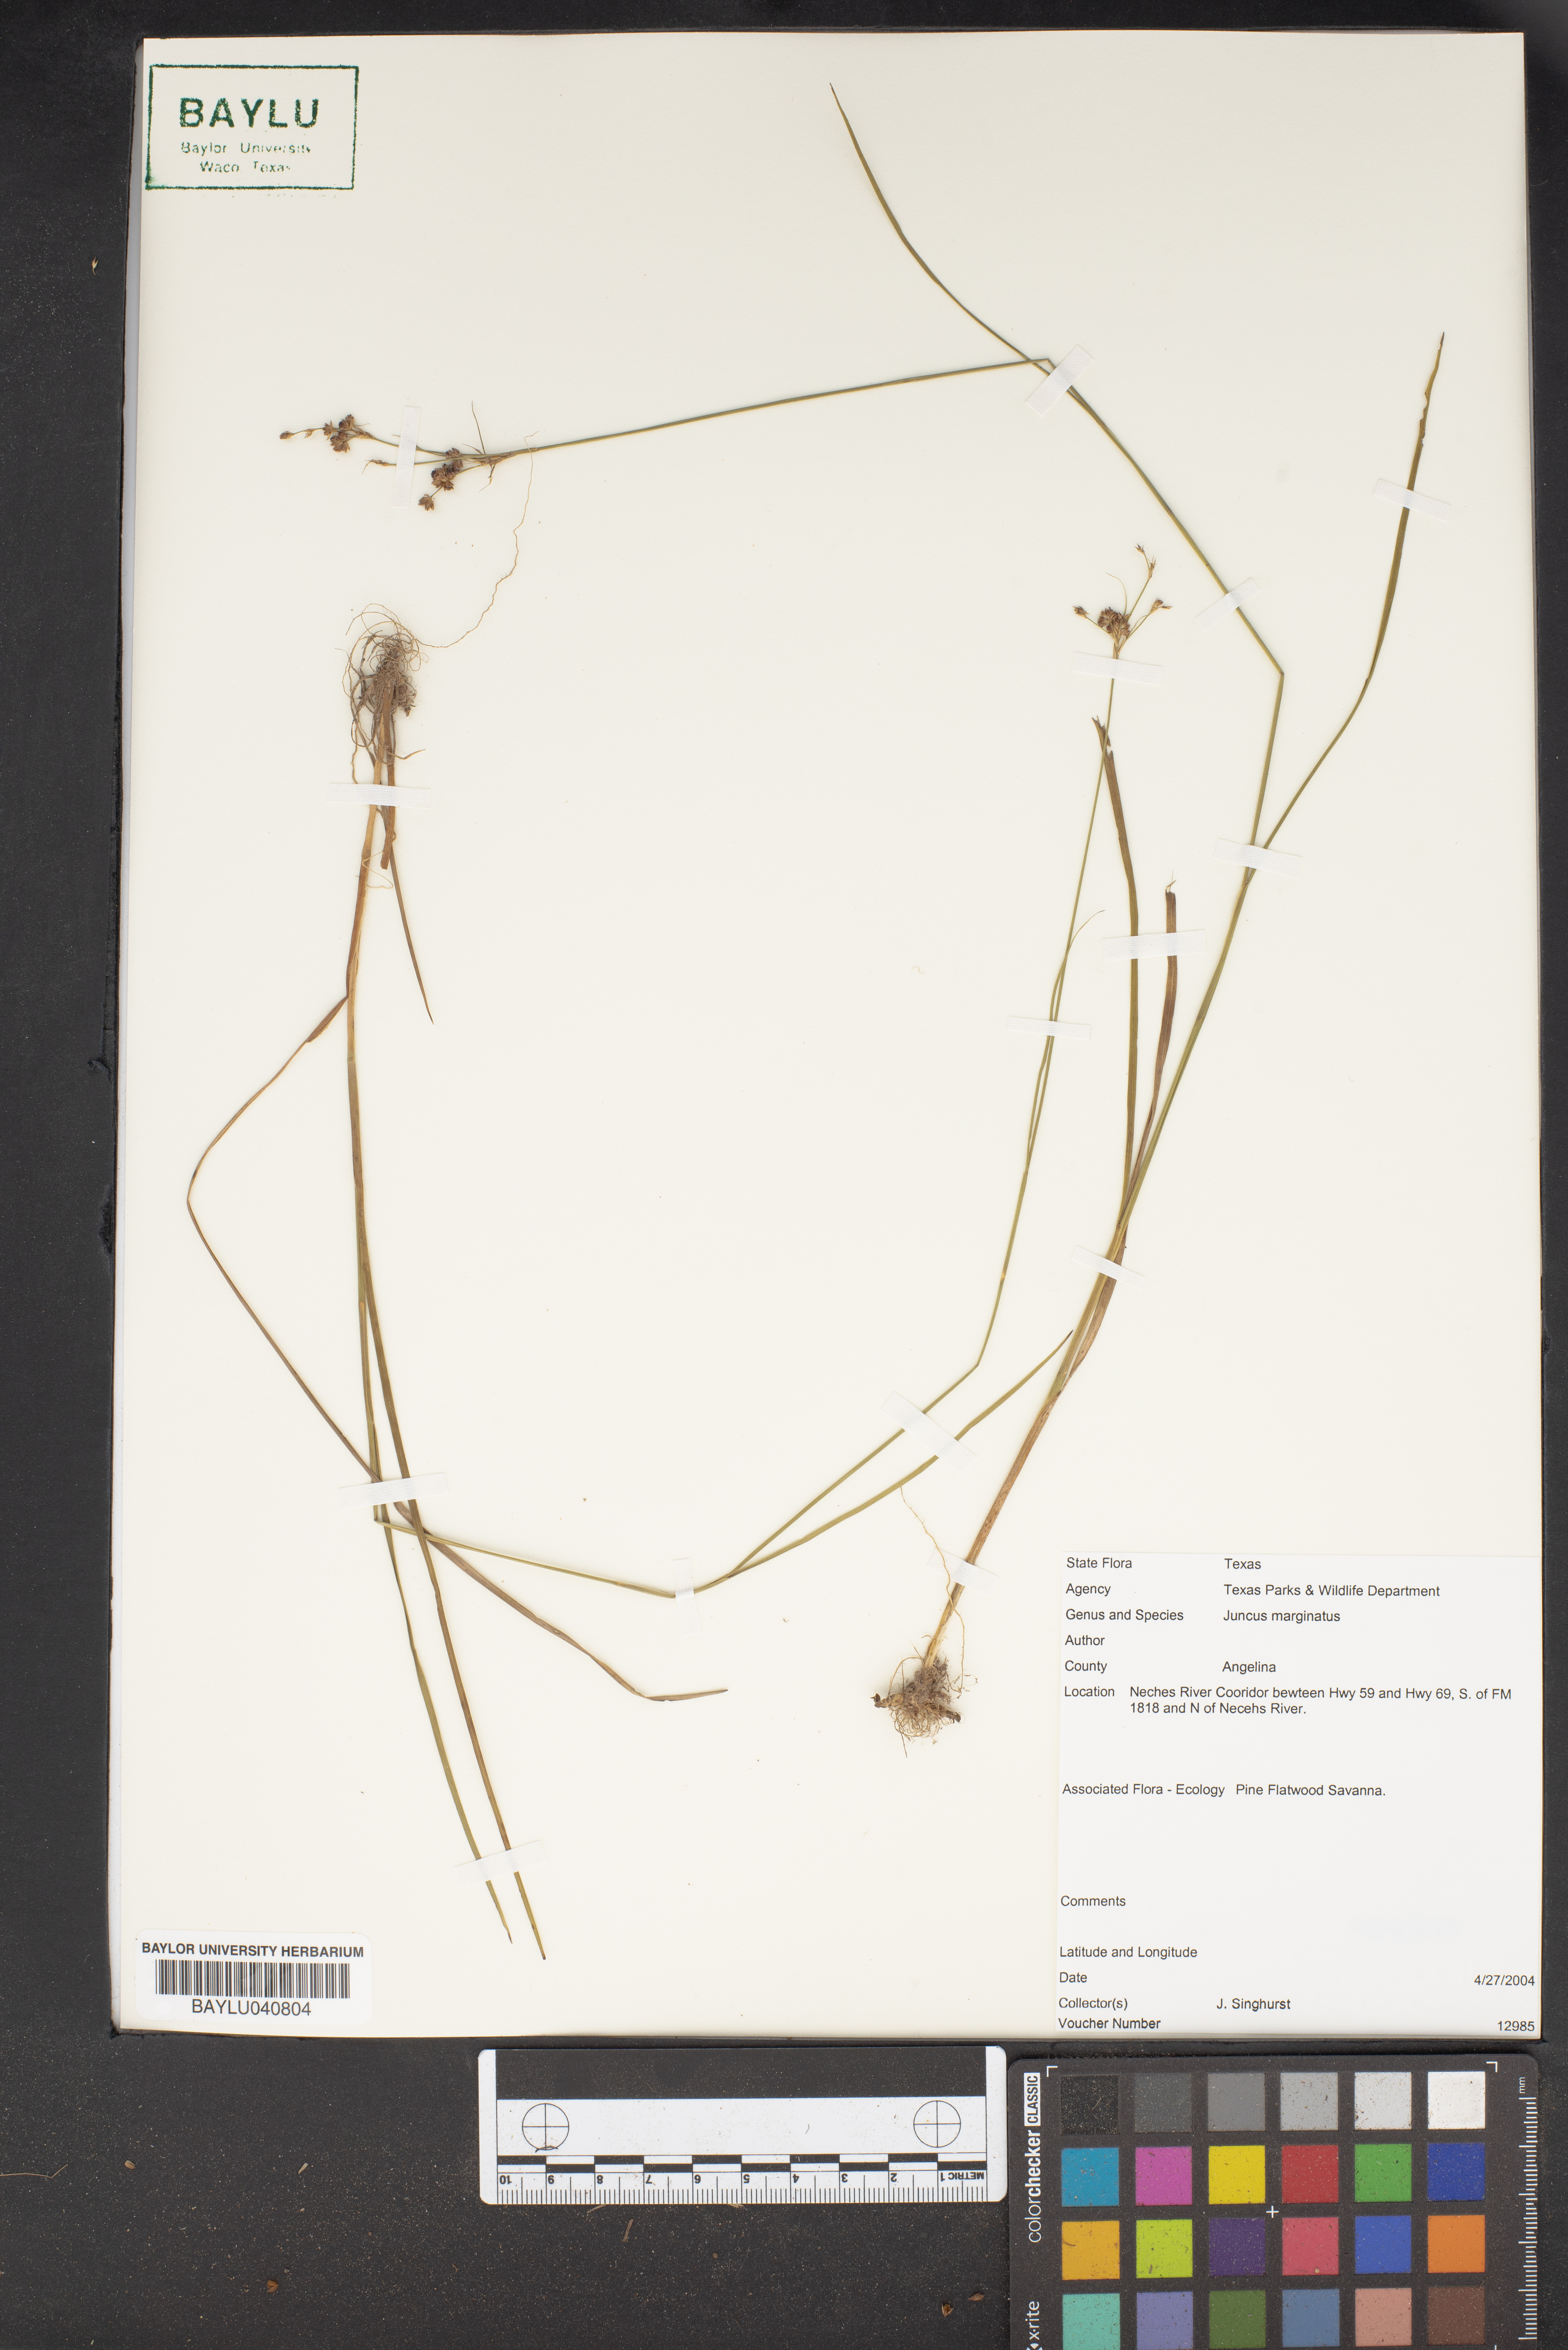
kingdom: Plantae
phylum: Tracheophyta
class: Liliopsida
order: Poales
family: Juncaceae
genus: Juncus
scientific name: Juncus marginatus
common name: Grass-leaf rush
